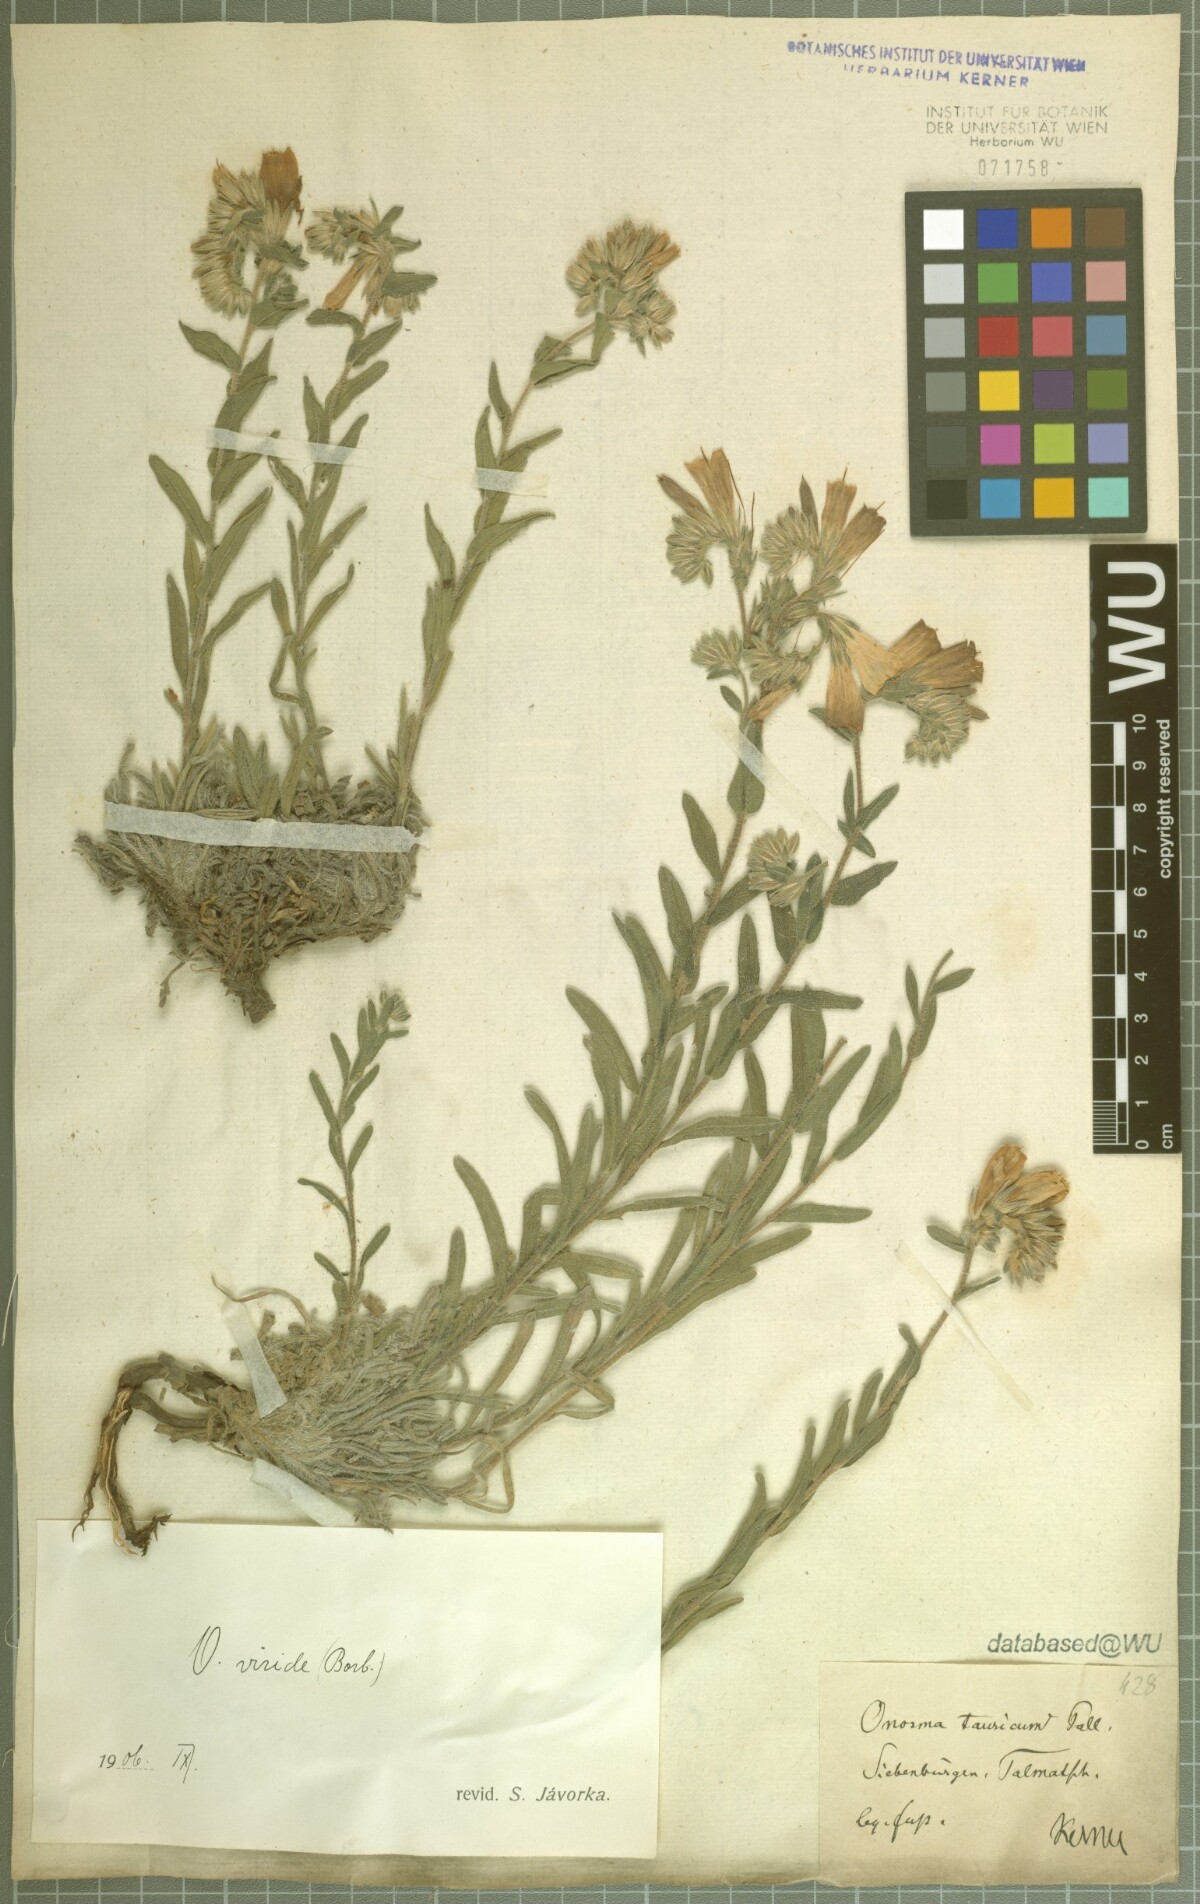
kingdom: Plantae
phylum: Tracheophyta
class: Magnoliopsida
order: Boraginales
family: Boraginaceae
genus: Onosma
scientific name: Onosma viridis
